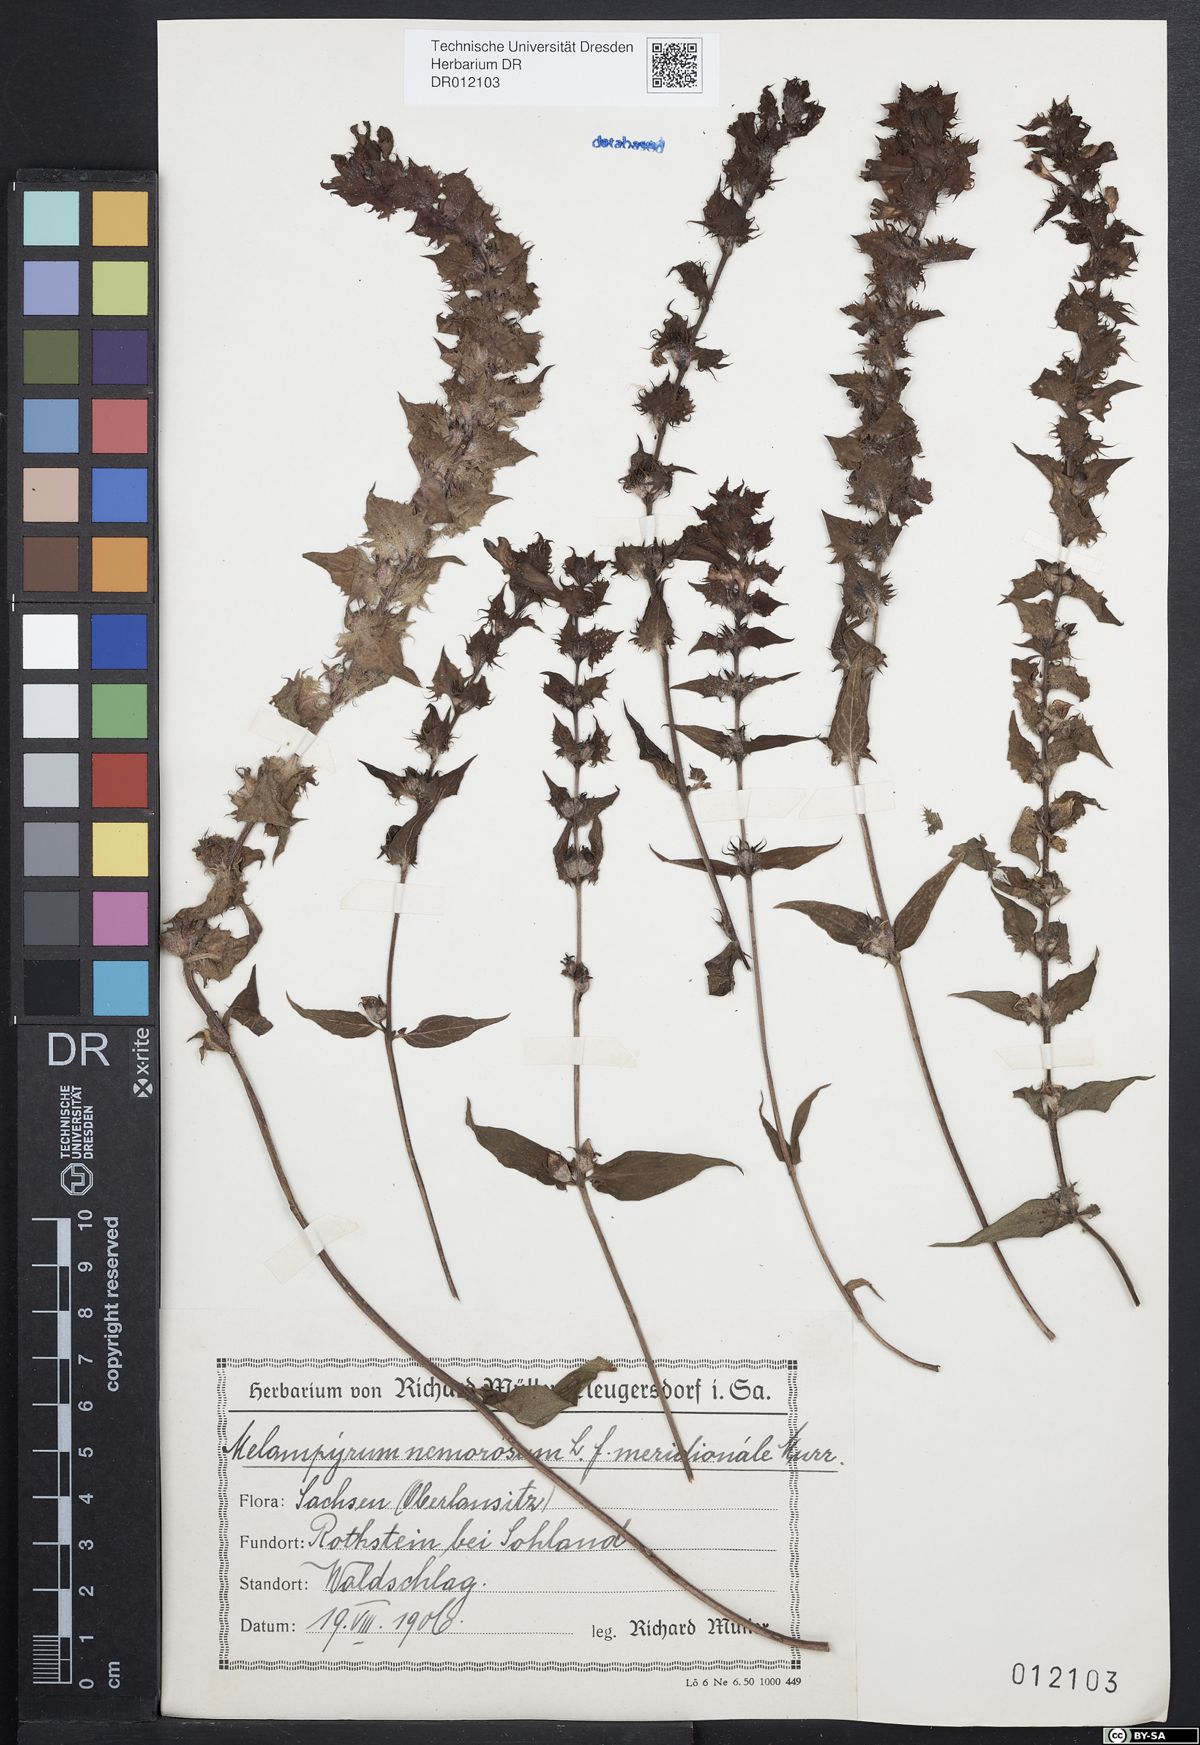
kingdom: Plantae
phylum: Tracheophyta
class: Magnoliopsida
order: Lamiales
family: Orobanchaceae
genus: Melampyrum
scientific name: Melampyrum nemorosum
